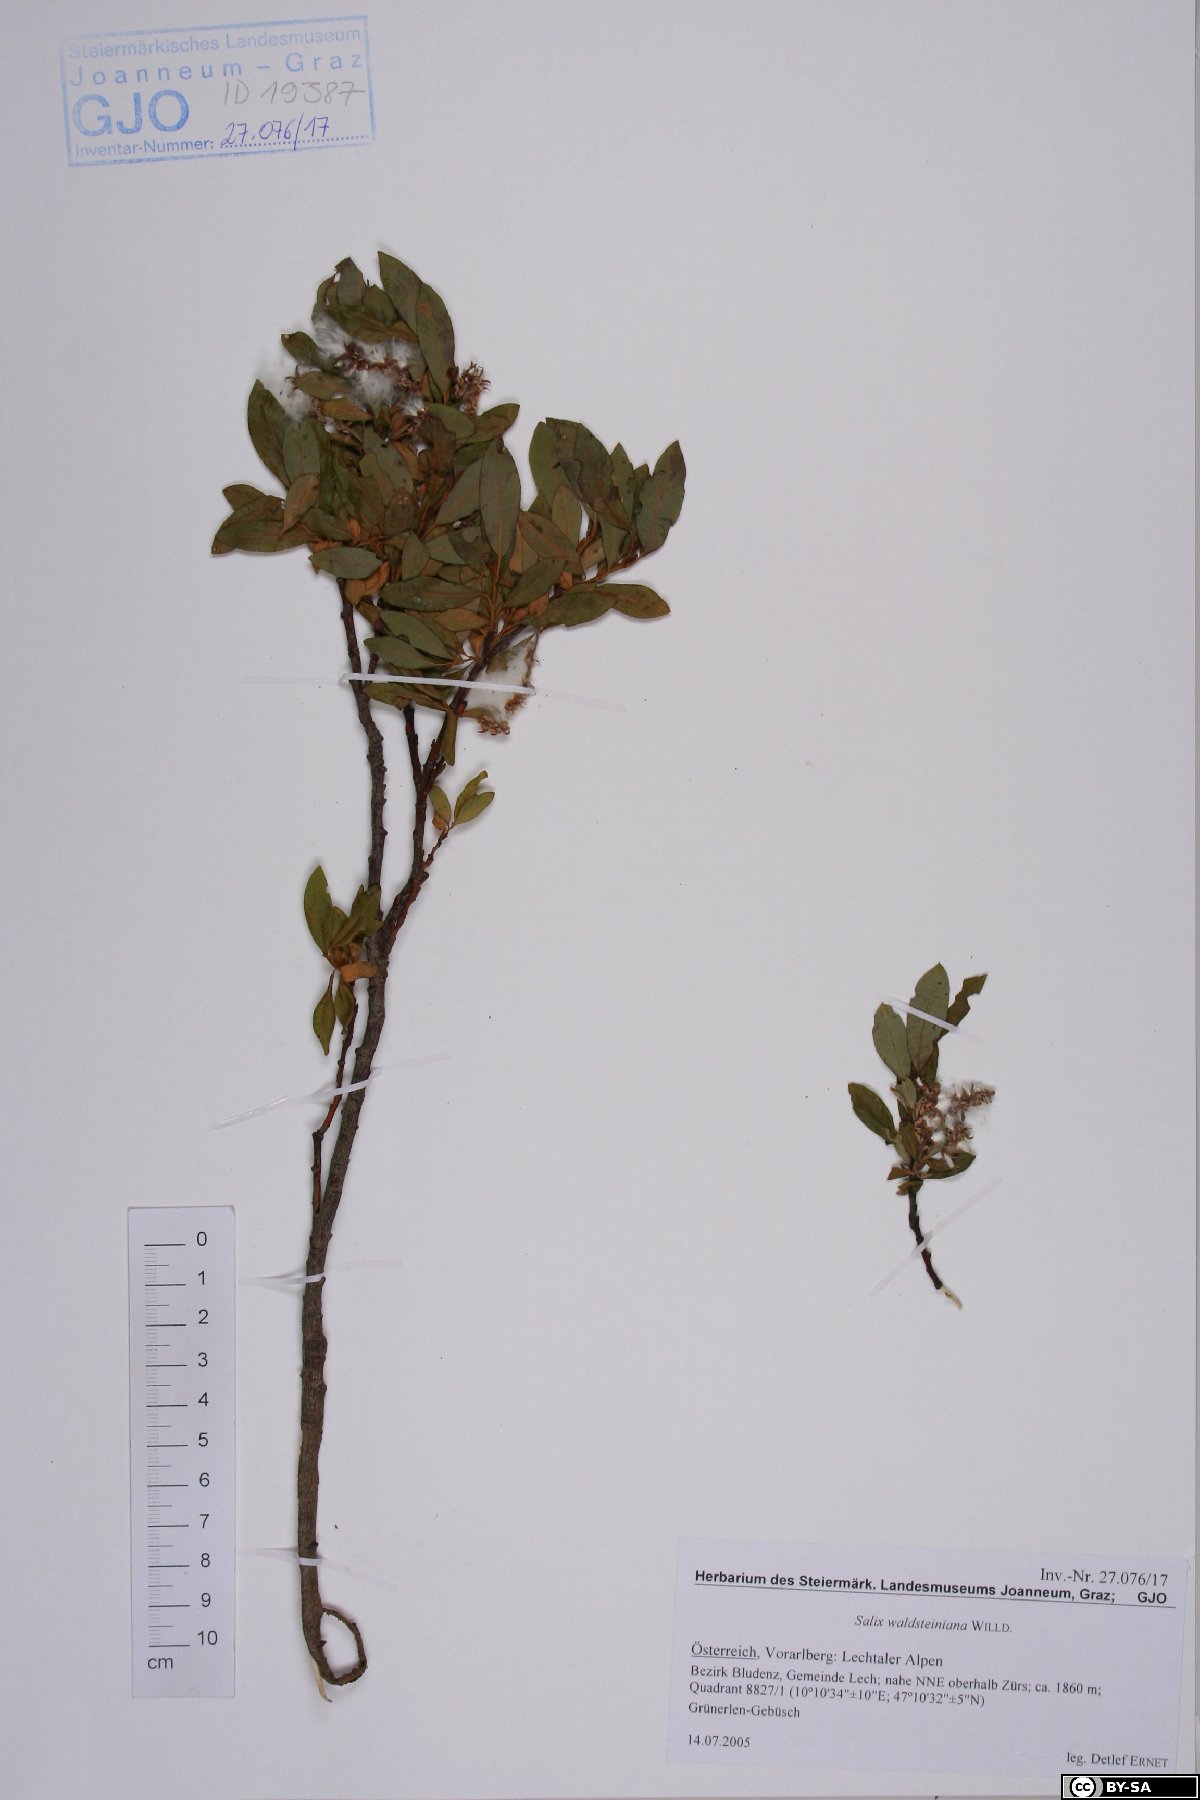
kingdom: Plantae
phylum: Tracheophyta
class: Magnoliopsida
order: Malpighiales
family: Salicaceae
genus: Salix
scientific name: Salix waldsteiniana
